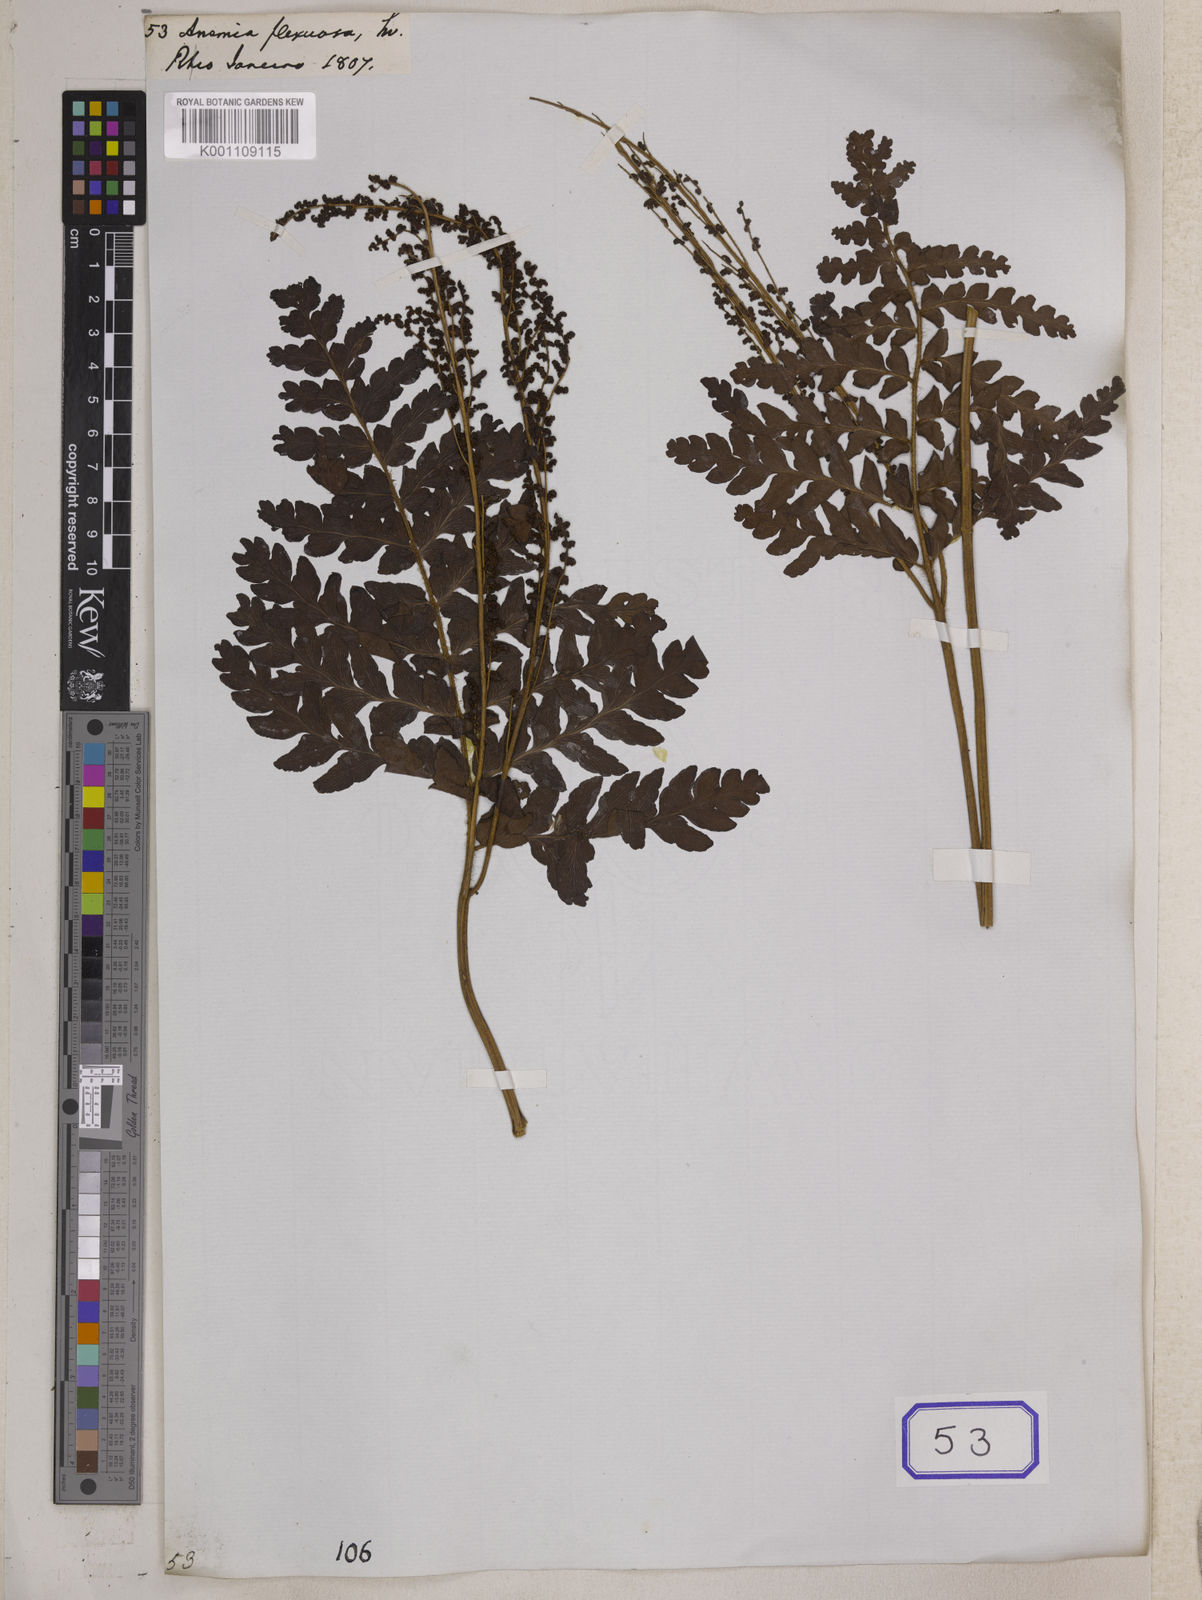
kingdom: Plantae
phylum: Tracheophyta
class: Polypodiopsida
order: Schizaeales
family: Anemiaceae
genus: Anemia
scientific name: Anemia flexuosa
